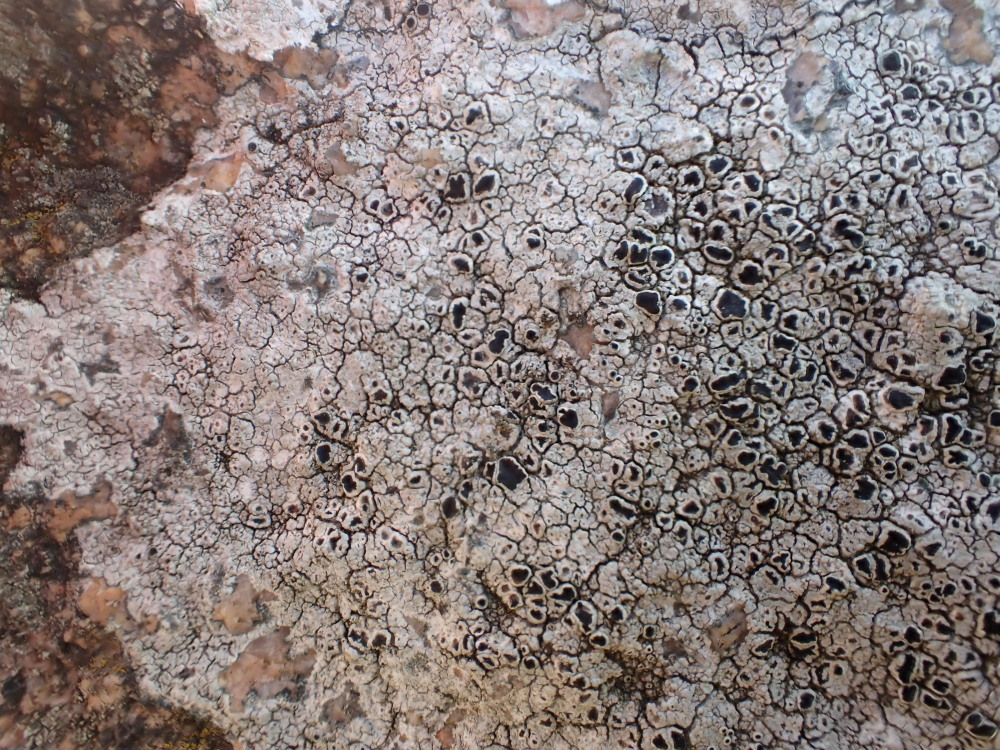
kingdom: Fungi
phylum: Ascomycota
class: Lecanoromycetes
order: Lecanorales
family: Tephromelataceae
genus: Tephromela
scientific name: Tephromela atra
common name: sortfrugtet kantskivelav
